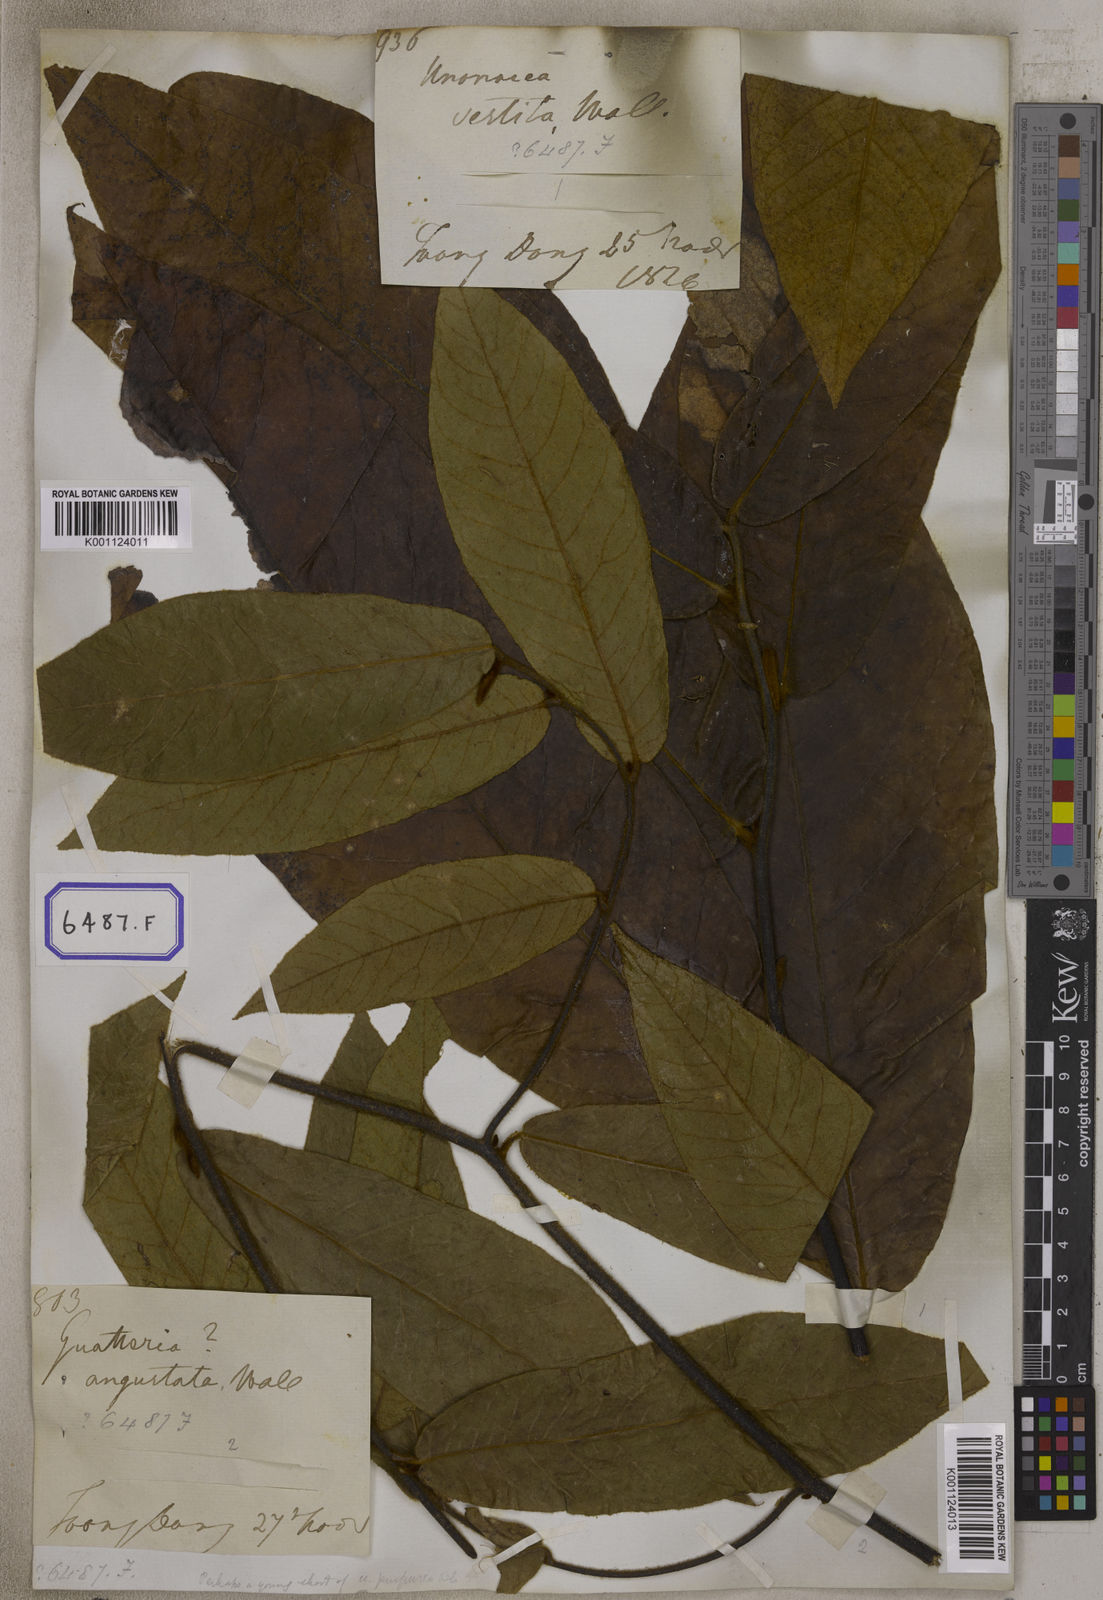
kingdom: Plantae
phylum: Tracheophyta
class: Magnoliopsida
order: Magnoliales
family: Annonaceae
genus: Uvaria
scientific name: Uvaria littoralis
